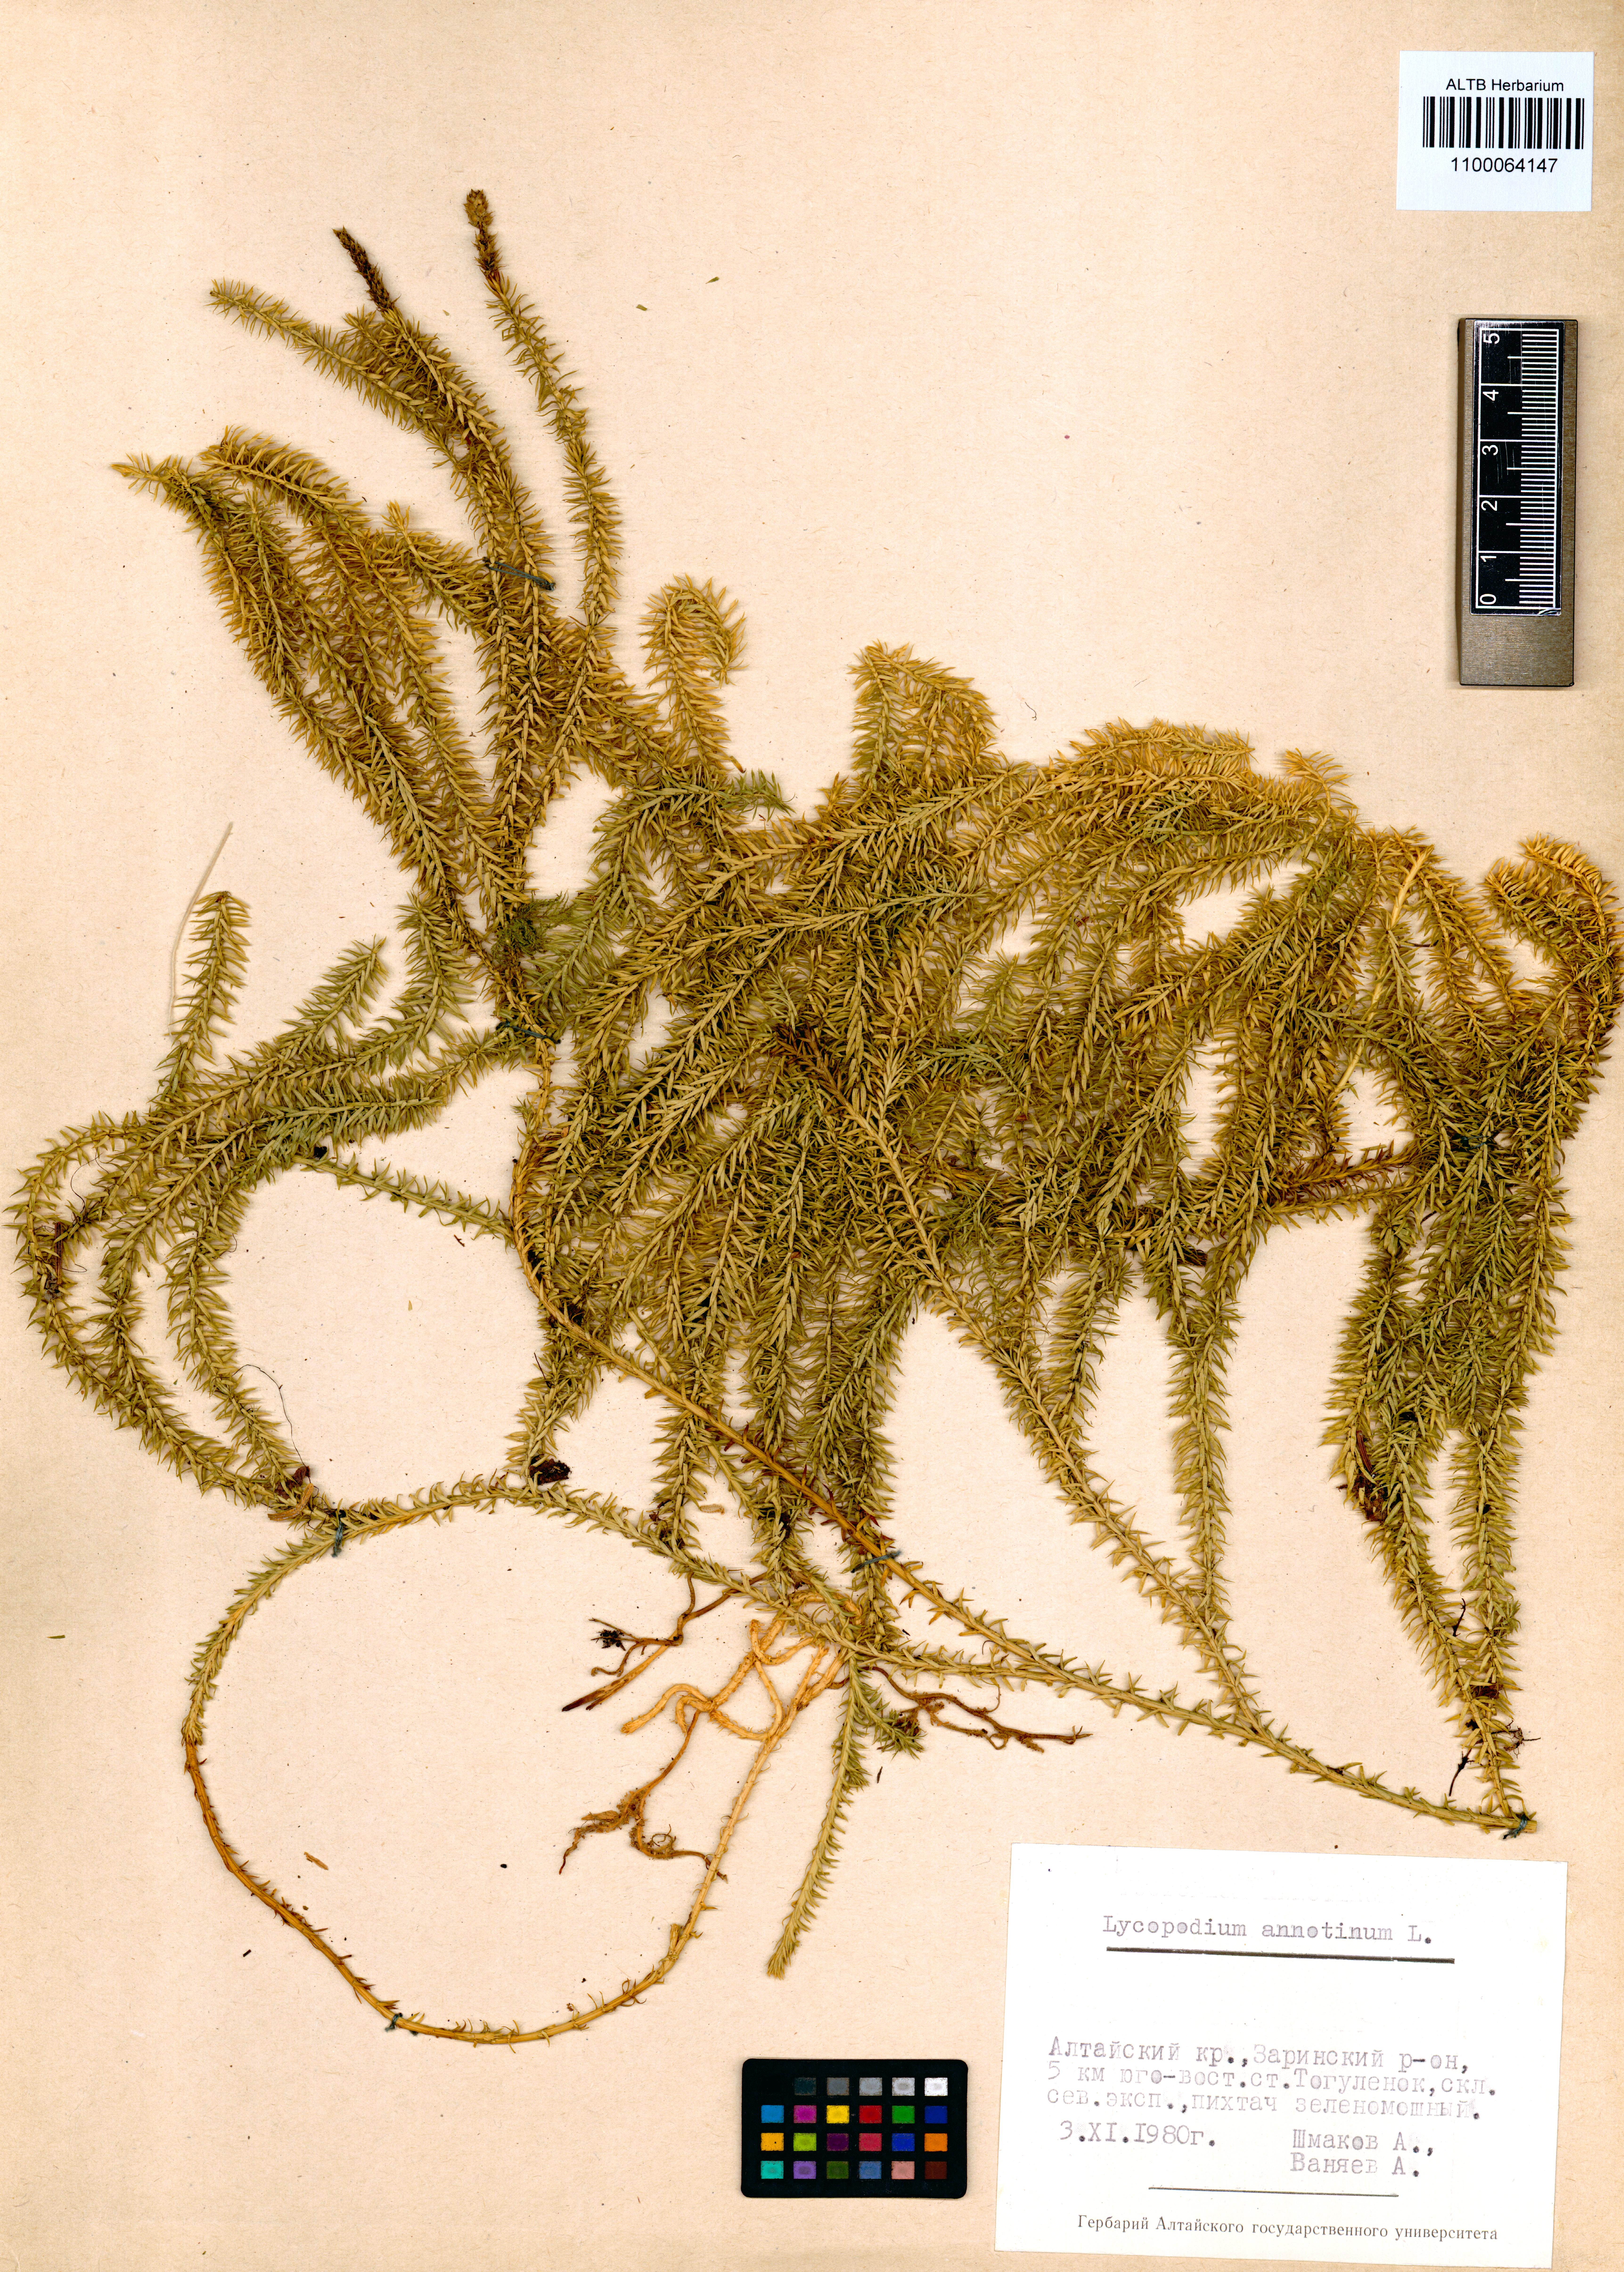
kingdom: Plantae
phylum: Tracheophyta
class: Lycopodiopsida
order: Lycopodiales
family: Lycopodiaceae
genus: Spinulum
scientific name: Spinulum annotinum
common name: Interrupted club-moss
